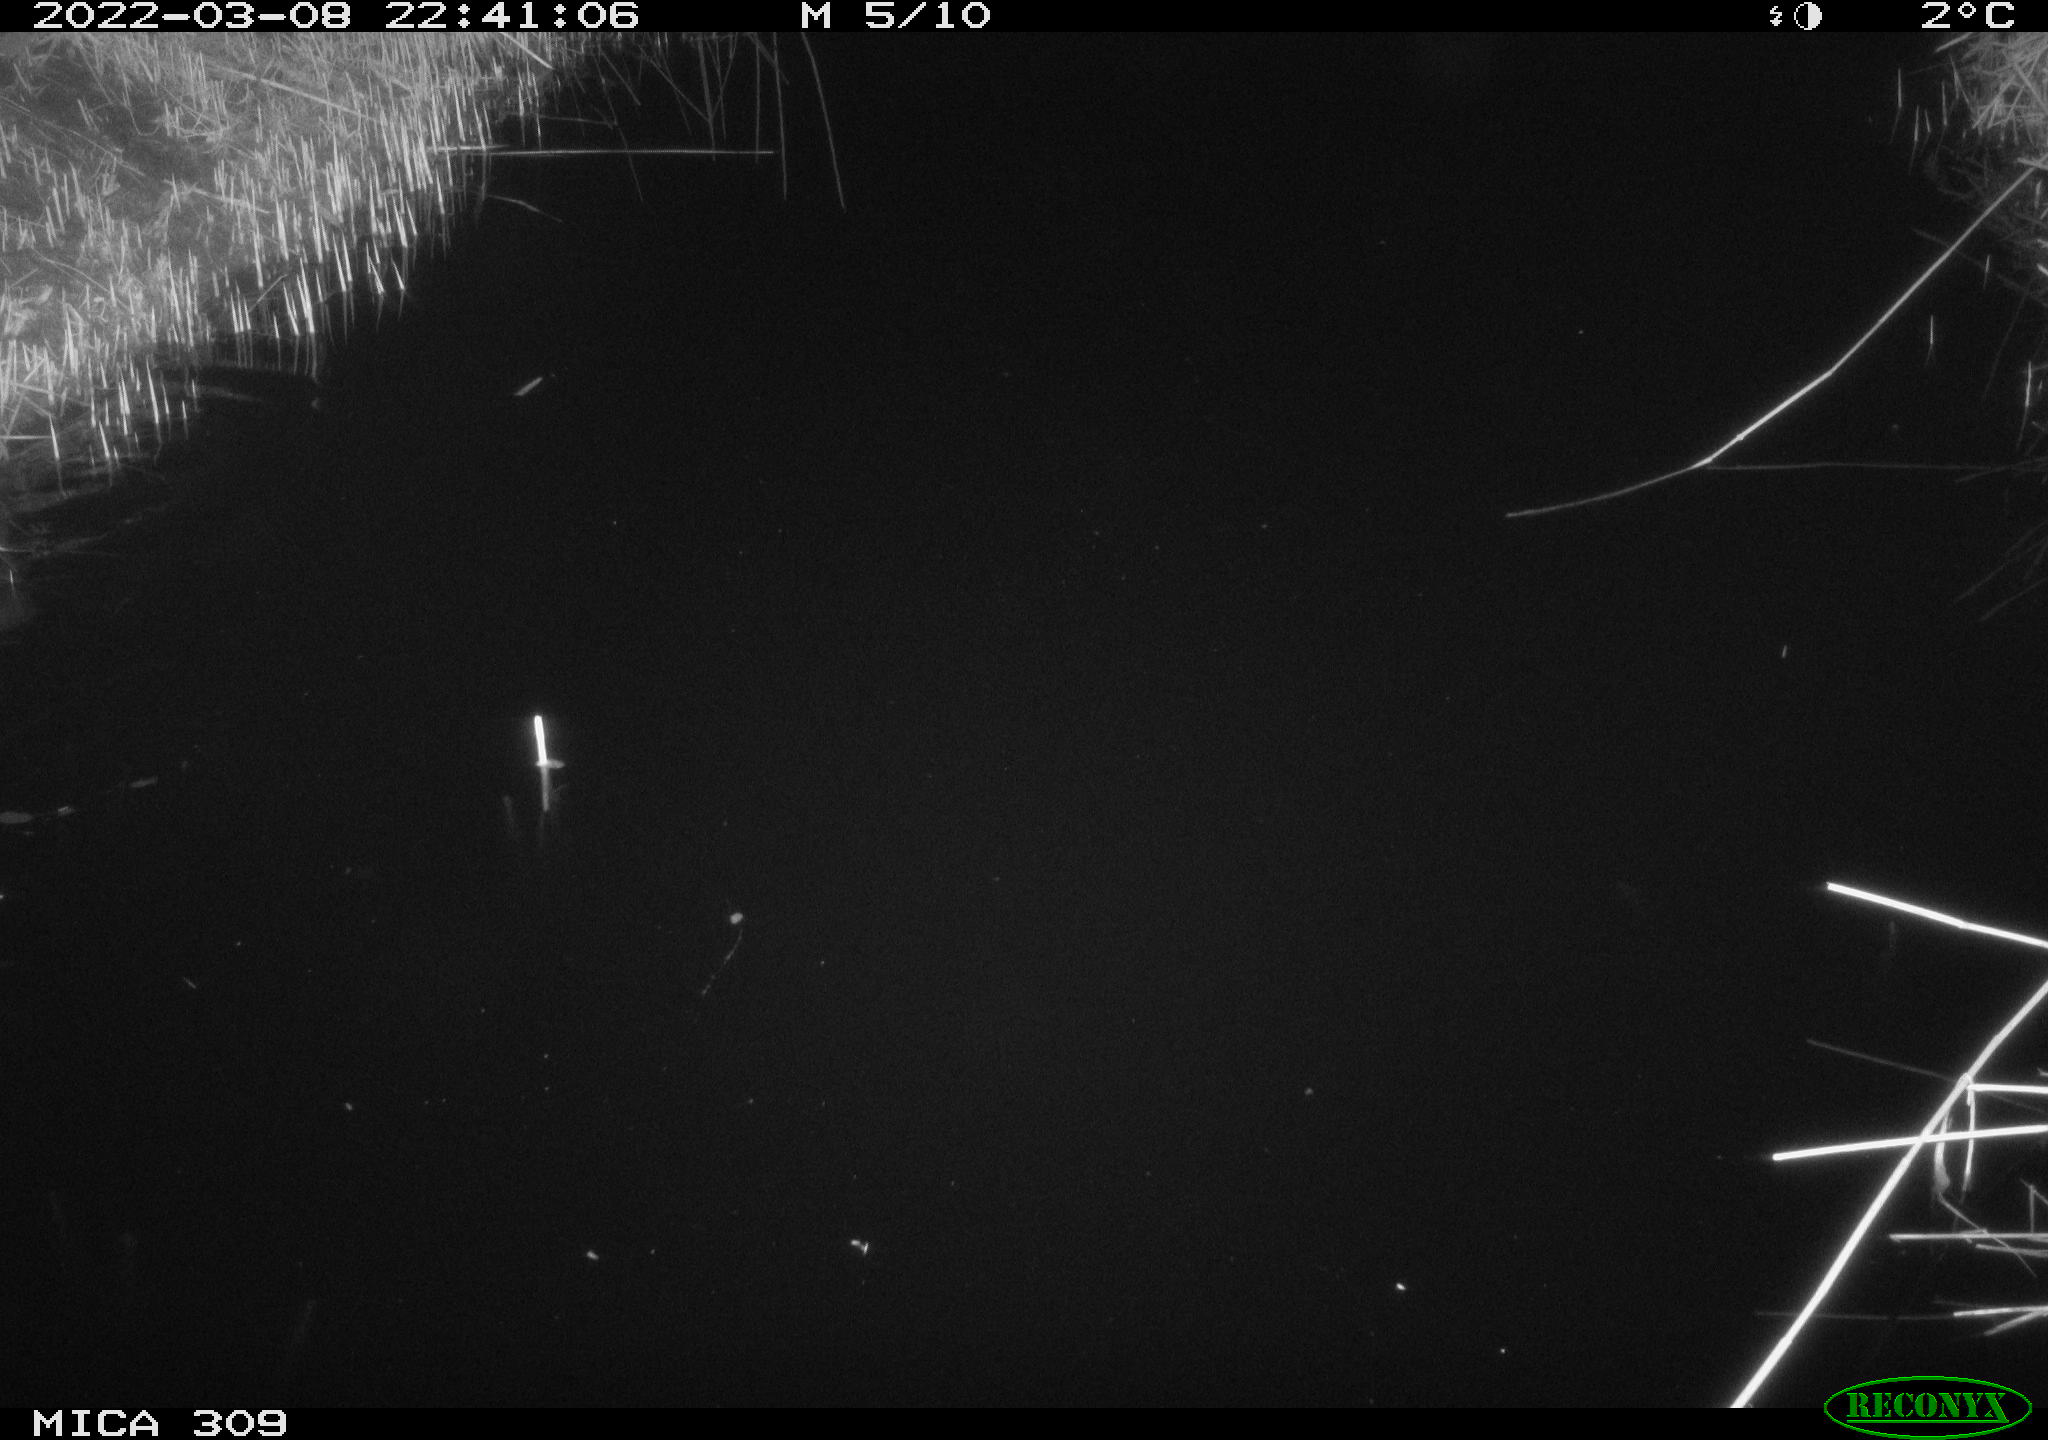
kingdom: Animalia
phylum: Chordata
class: Mammalia
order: Rodentia
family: Cricetidae
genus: Ondatra
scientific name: Ondatra zibethicus
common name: Muskrat
